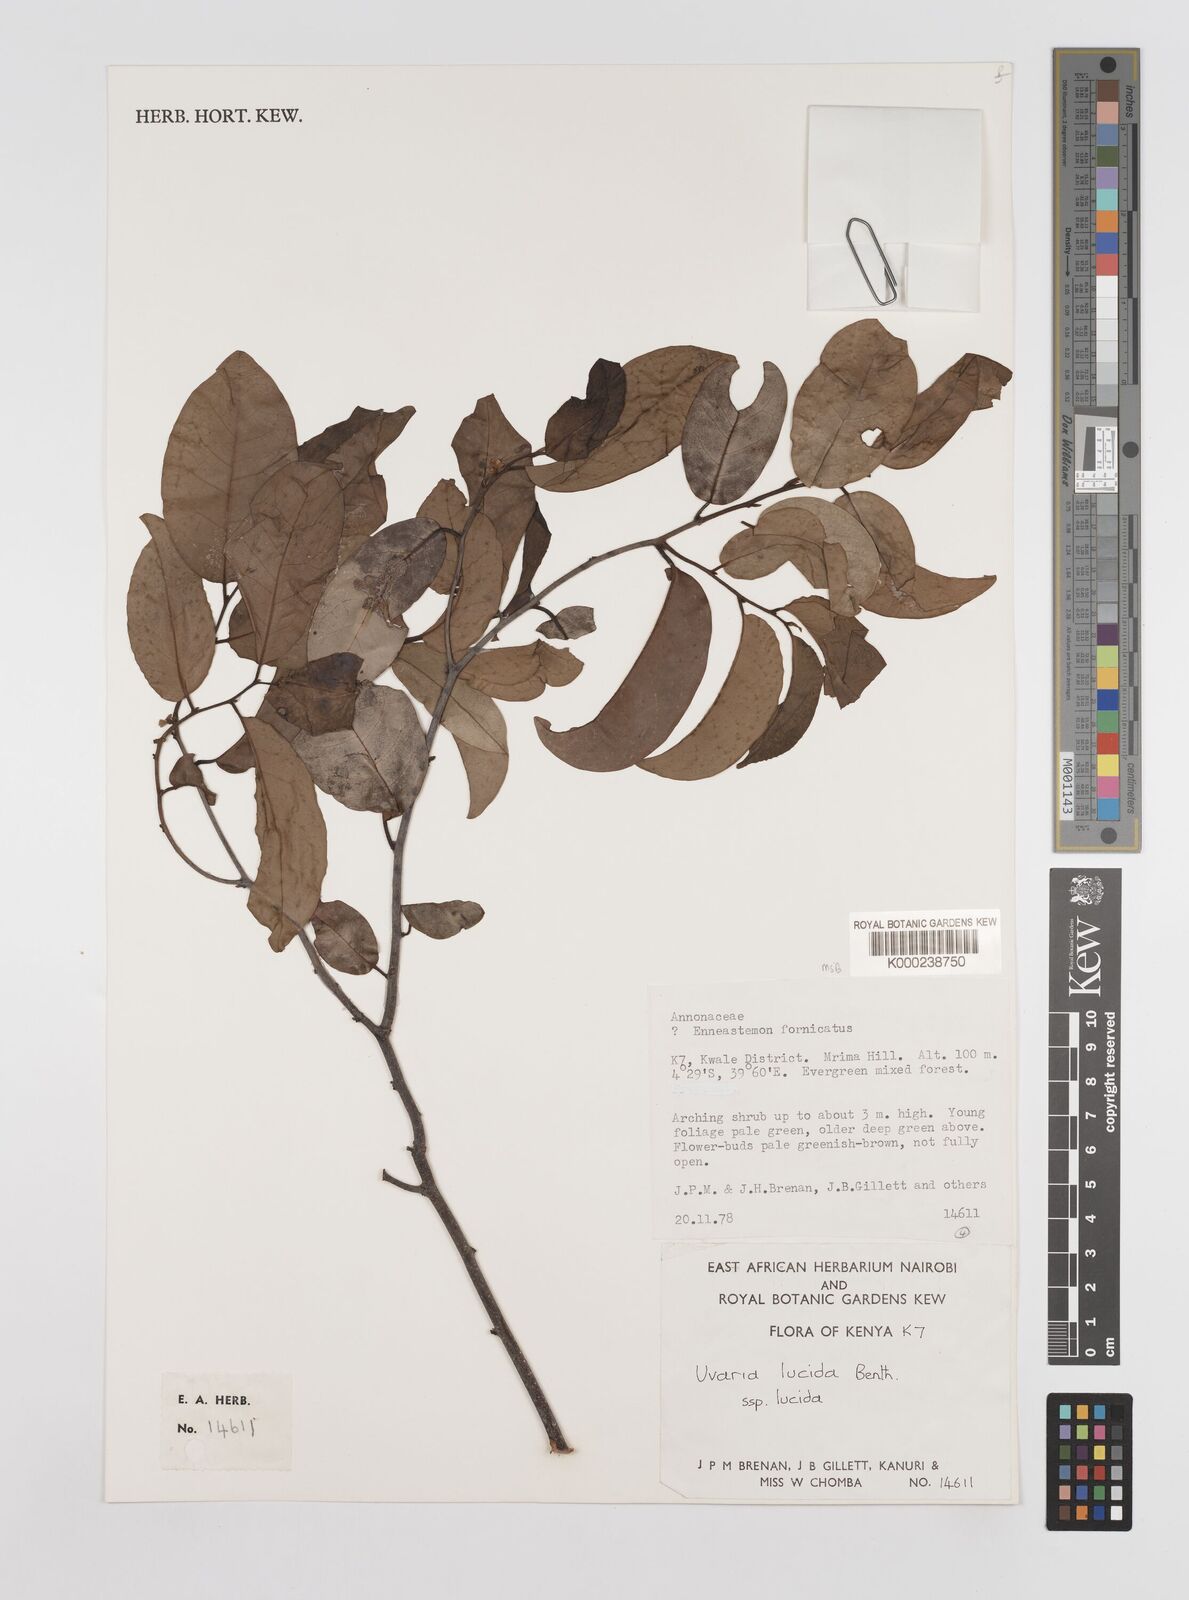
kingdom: Plantae
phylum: Tracheophyta
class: Magnoliopsida
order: Magnoliales
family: Annonaceae
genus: Uvaria
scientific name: Uvaria lucida
